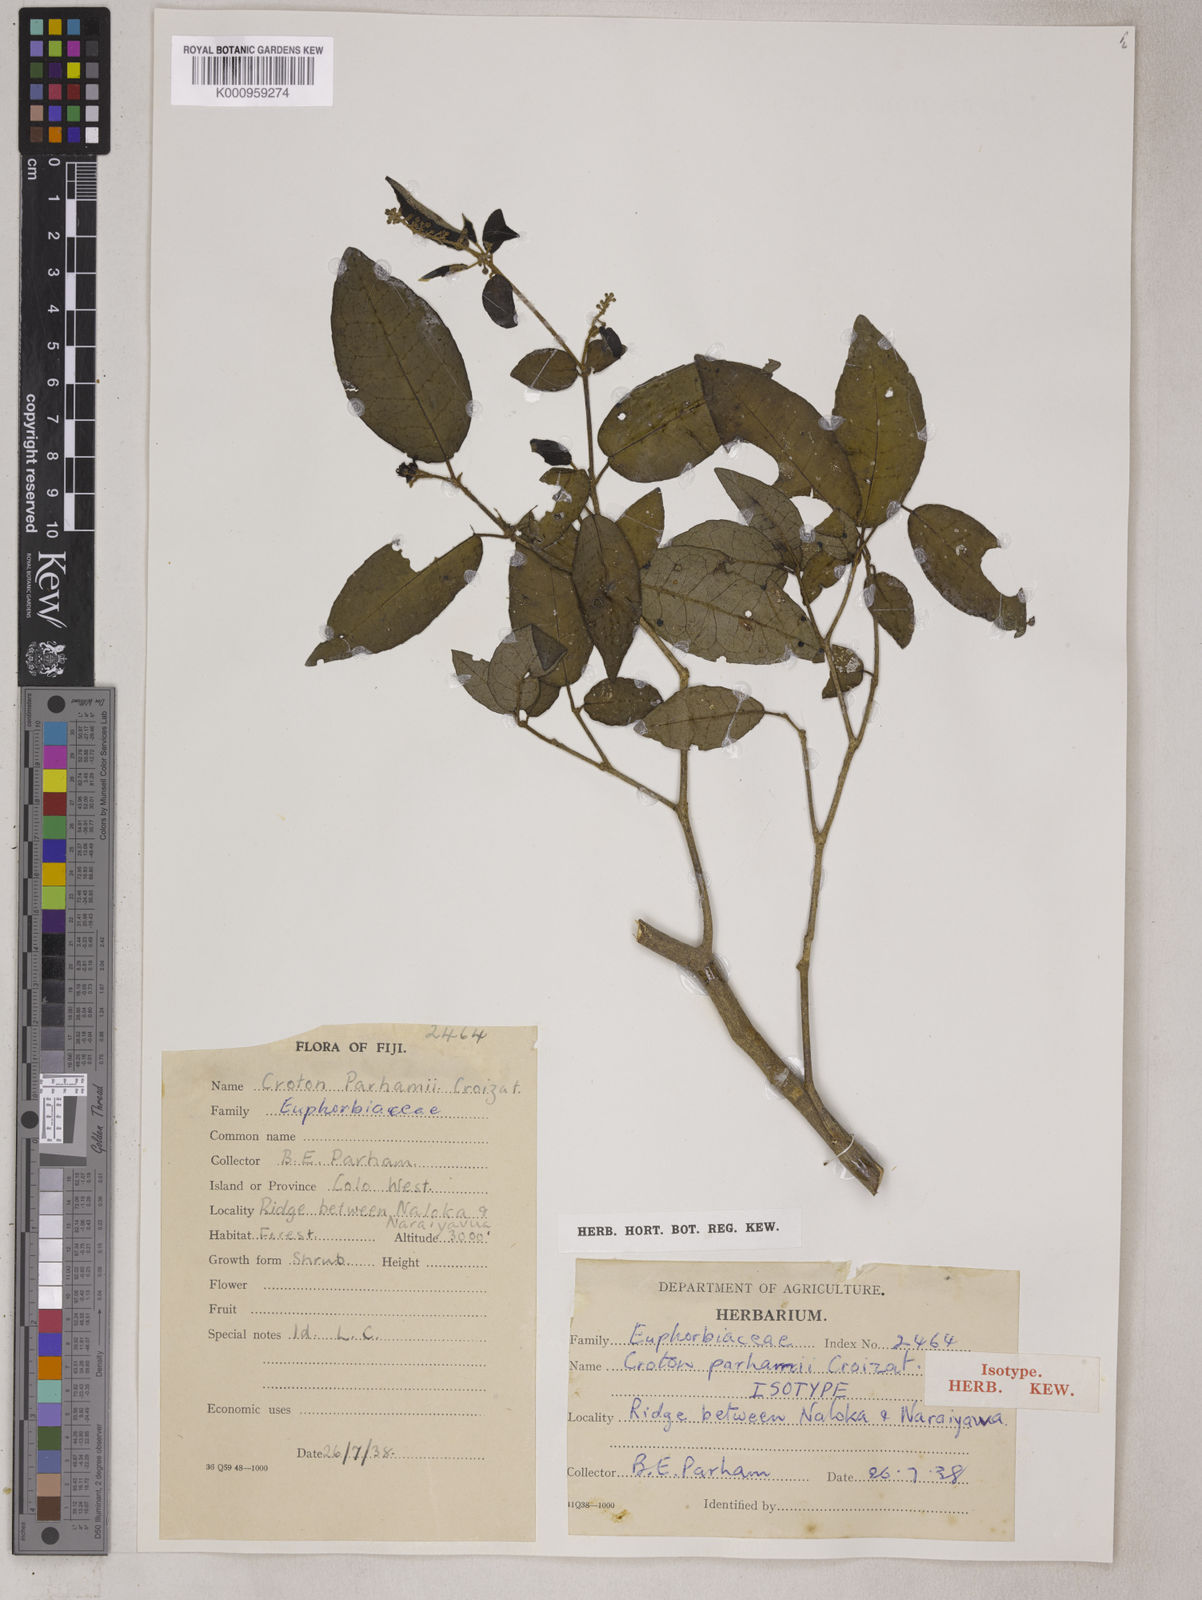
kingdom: Plantae
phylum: Tracheophyta
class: Magnoliopsida
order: Malpighiales
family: Euphorbiaceae
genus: Croton
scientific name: Croton heterotrichus
